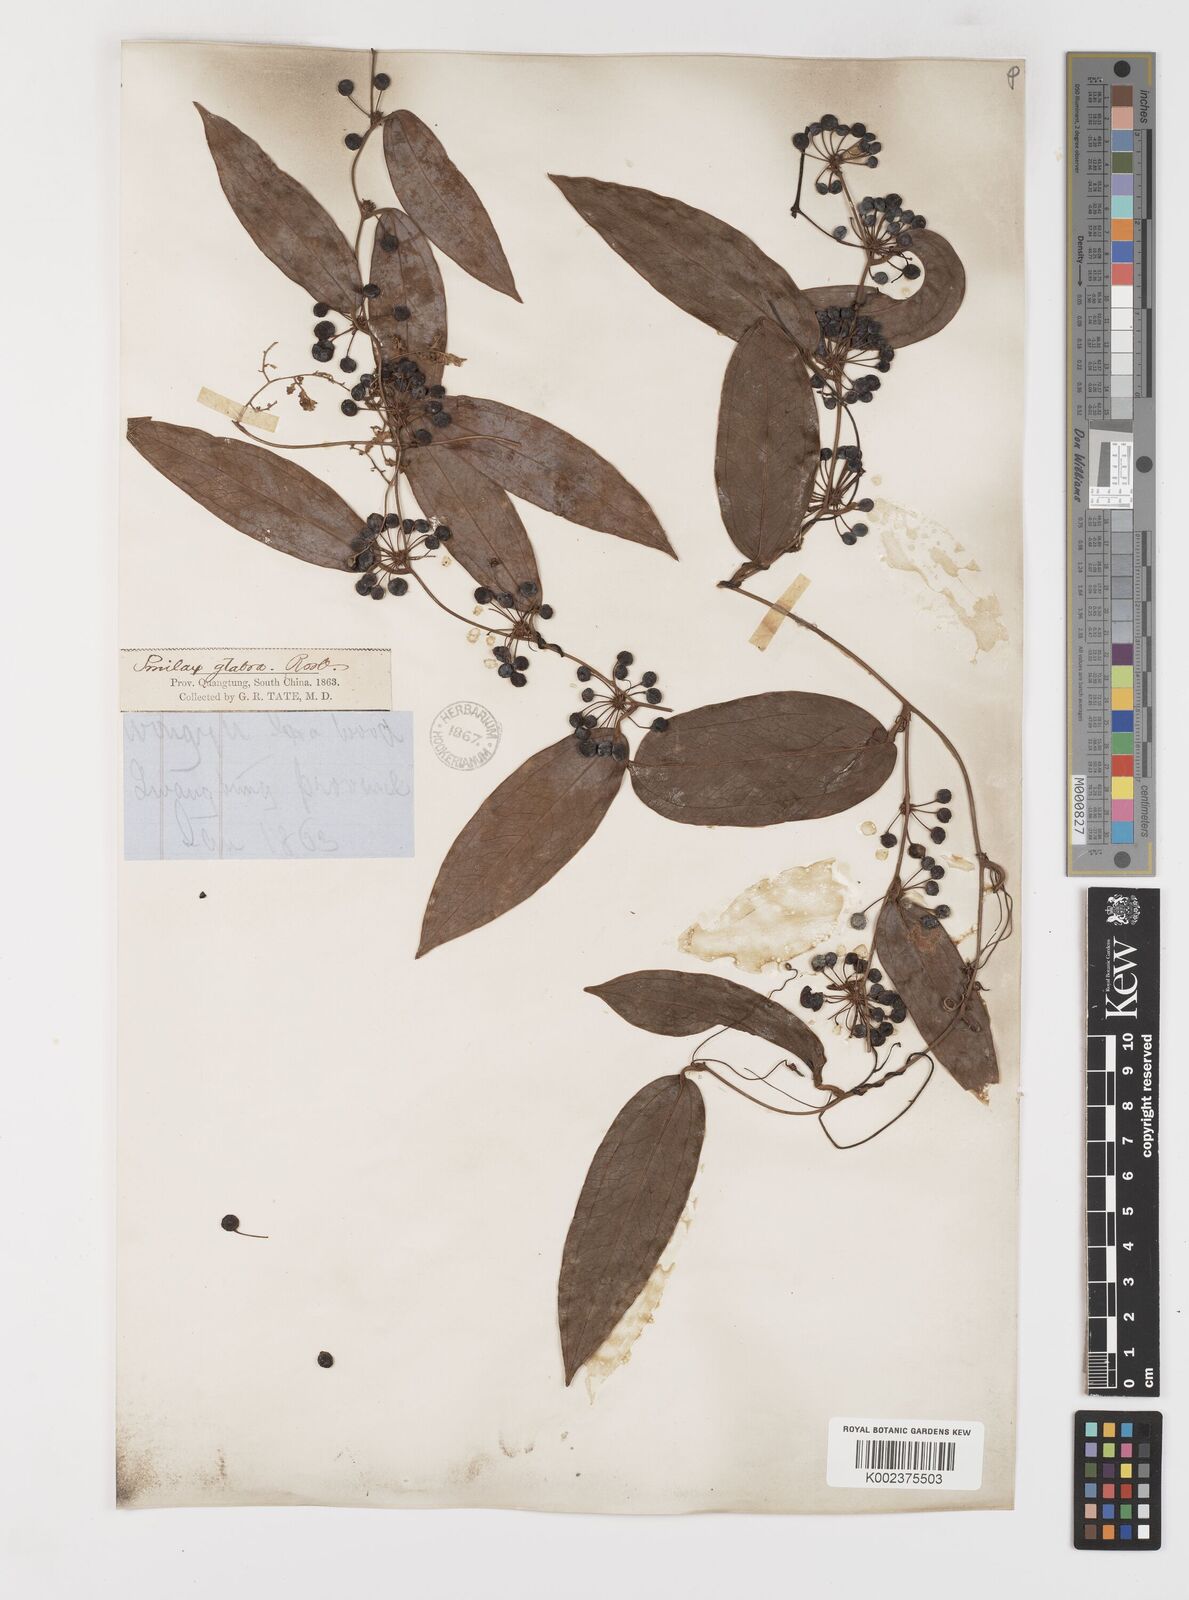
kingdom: Plantae
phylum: Tracheophyta
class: Liliopsida
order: Liliales
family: Smilacaceae
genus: Smilax
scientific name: Smilax glabra
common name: Chinese smilax
